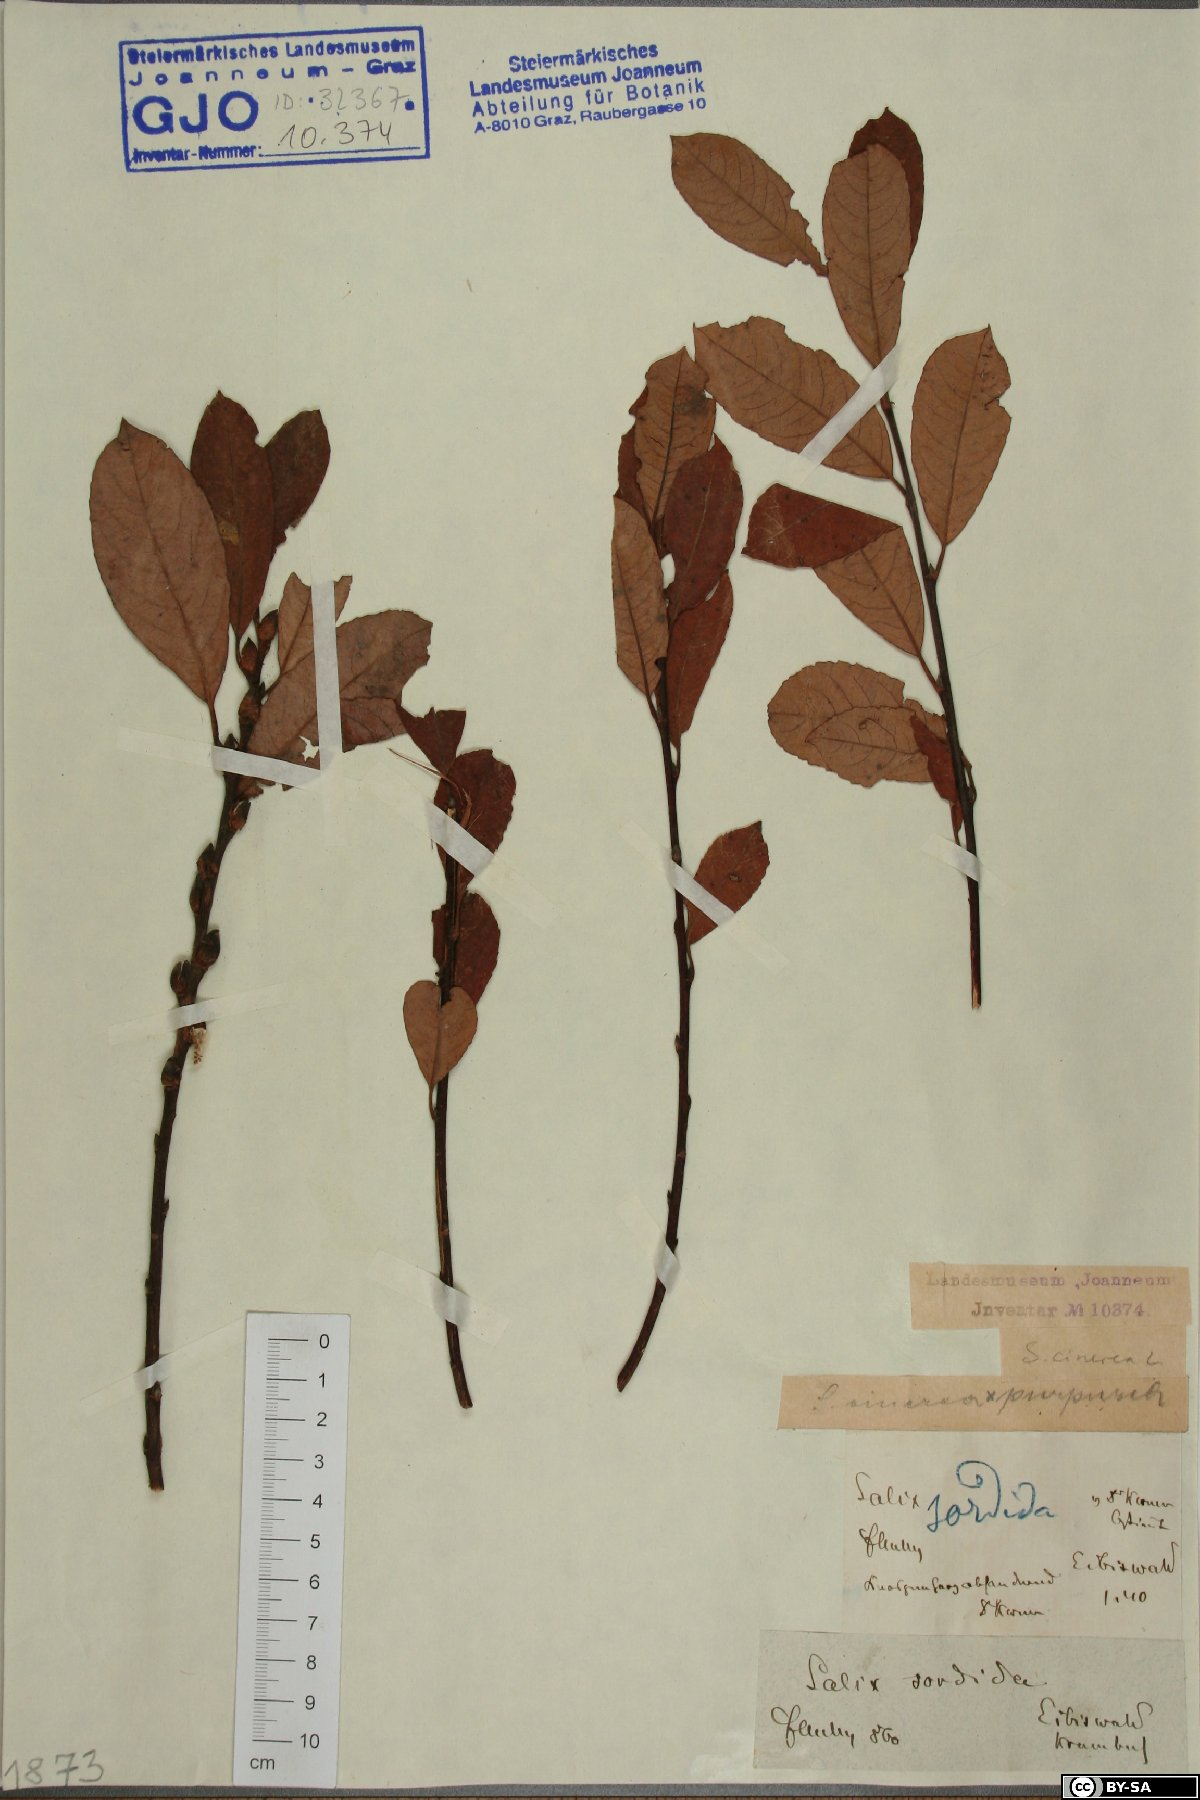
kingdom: Plantae
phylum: Tracheophyta
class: Magnoliopsida
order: Malpighiales
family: Salicaceae
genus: Salix
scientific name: Salix sordida
